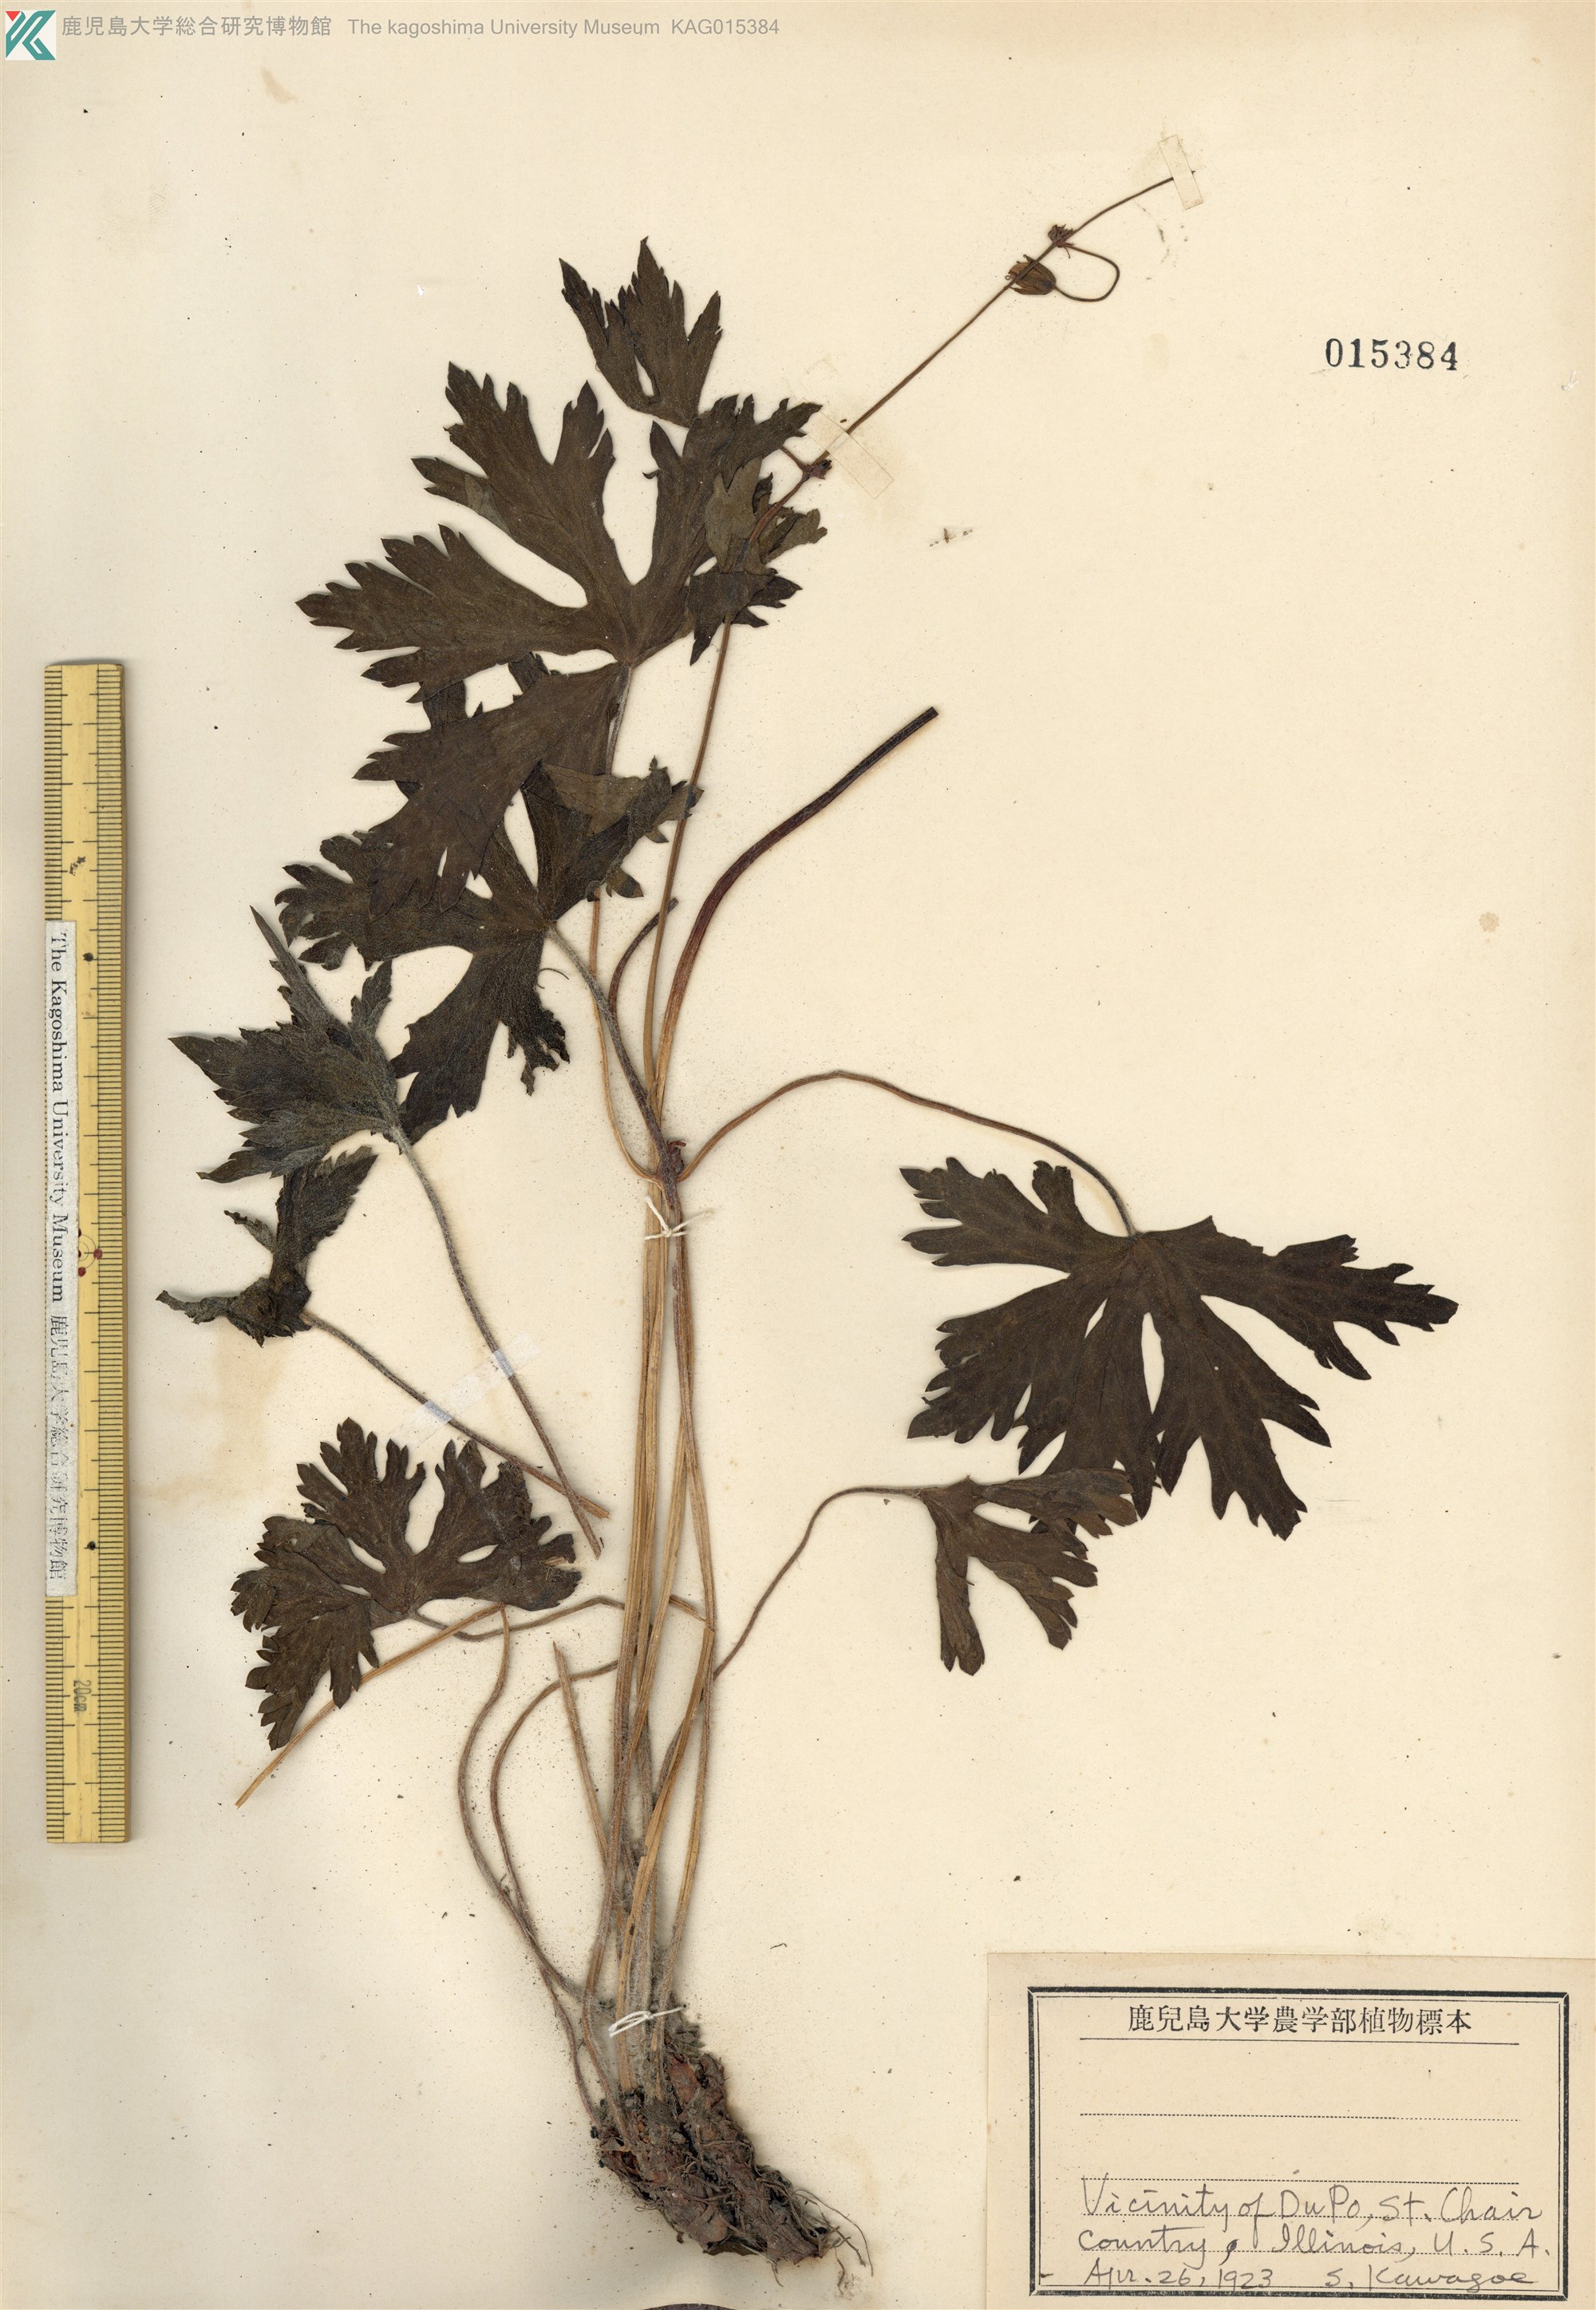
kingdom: Plantae
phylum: Tracheophyta
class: Magnoliopsida
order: Geraniales
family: Geraniaceae
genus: Geranium
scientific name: Geranium maculatum
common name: Spotted geranium
